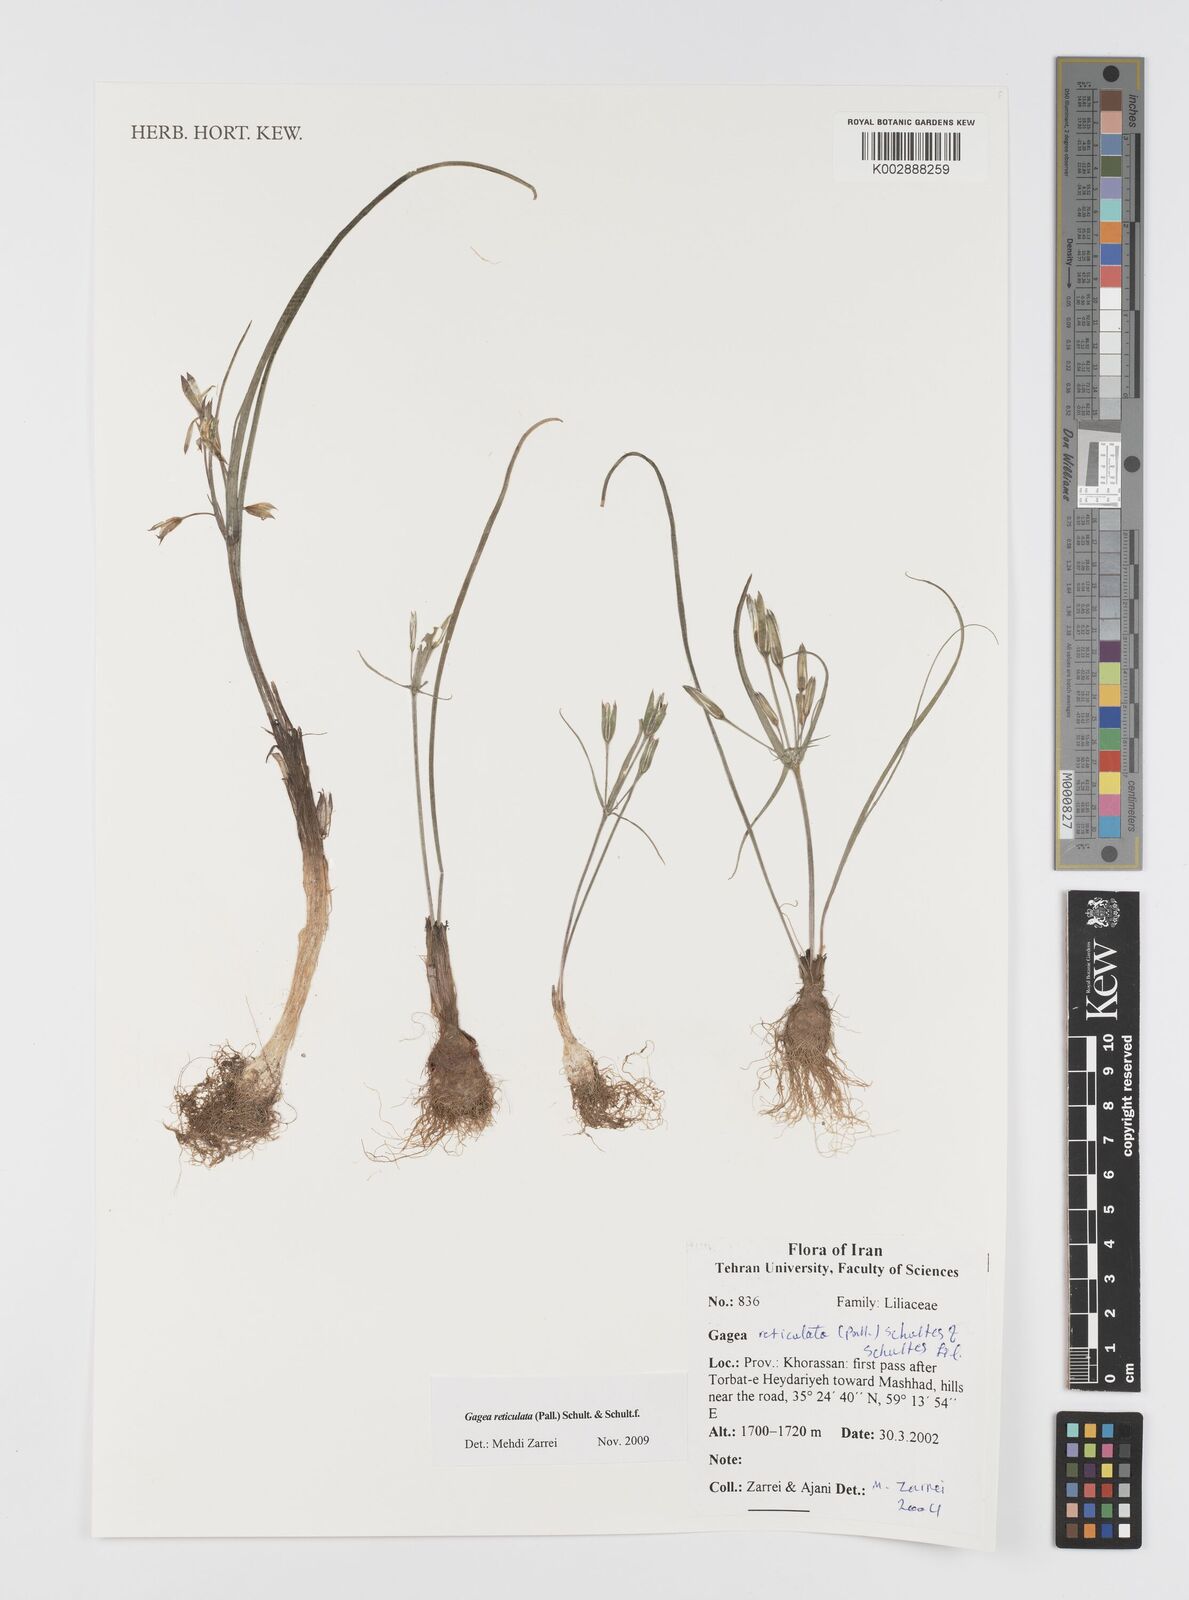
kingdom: Plantae
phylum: Tracheophyta
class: Liliopsida
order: Liliales
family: Liliaceae
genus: Gagea
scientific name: Gagea reticulata
